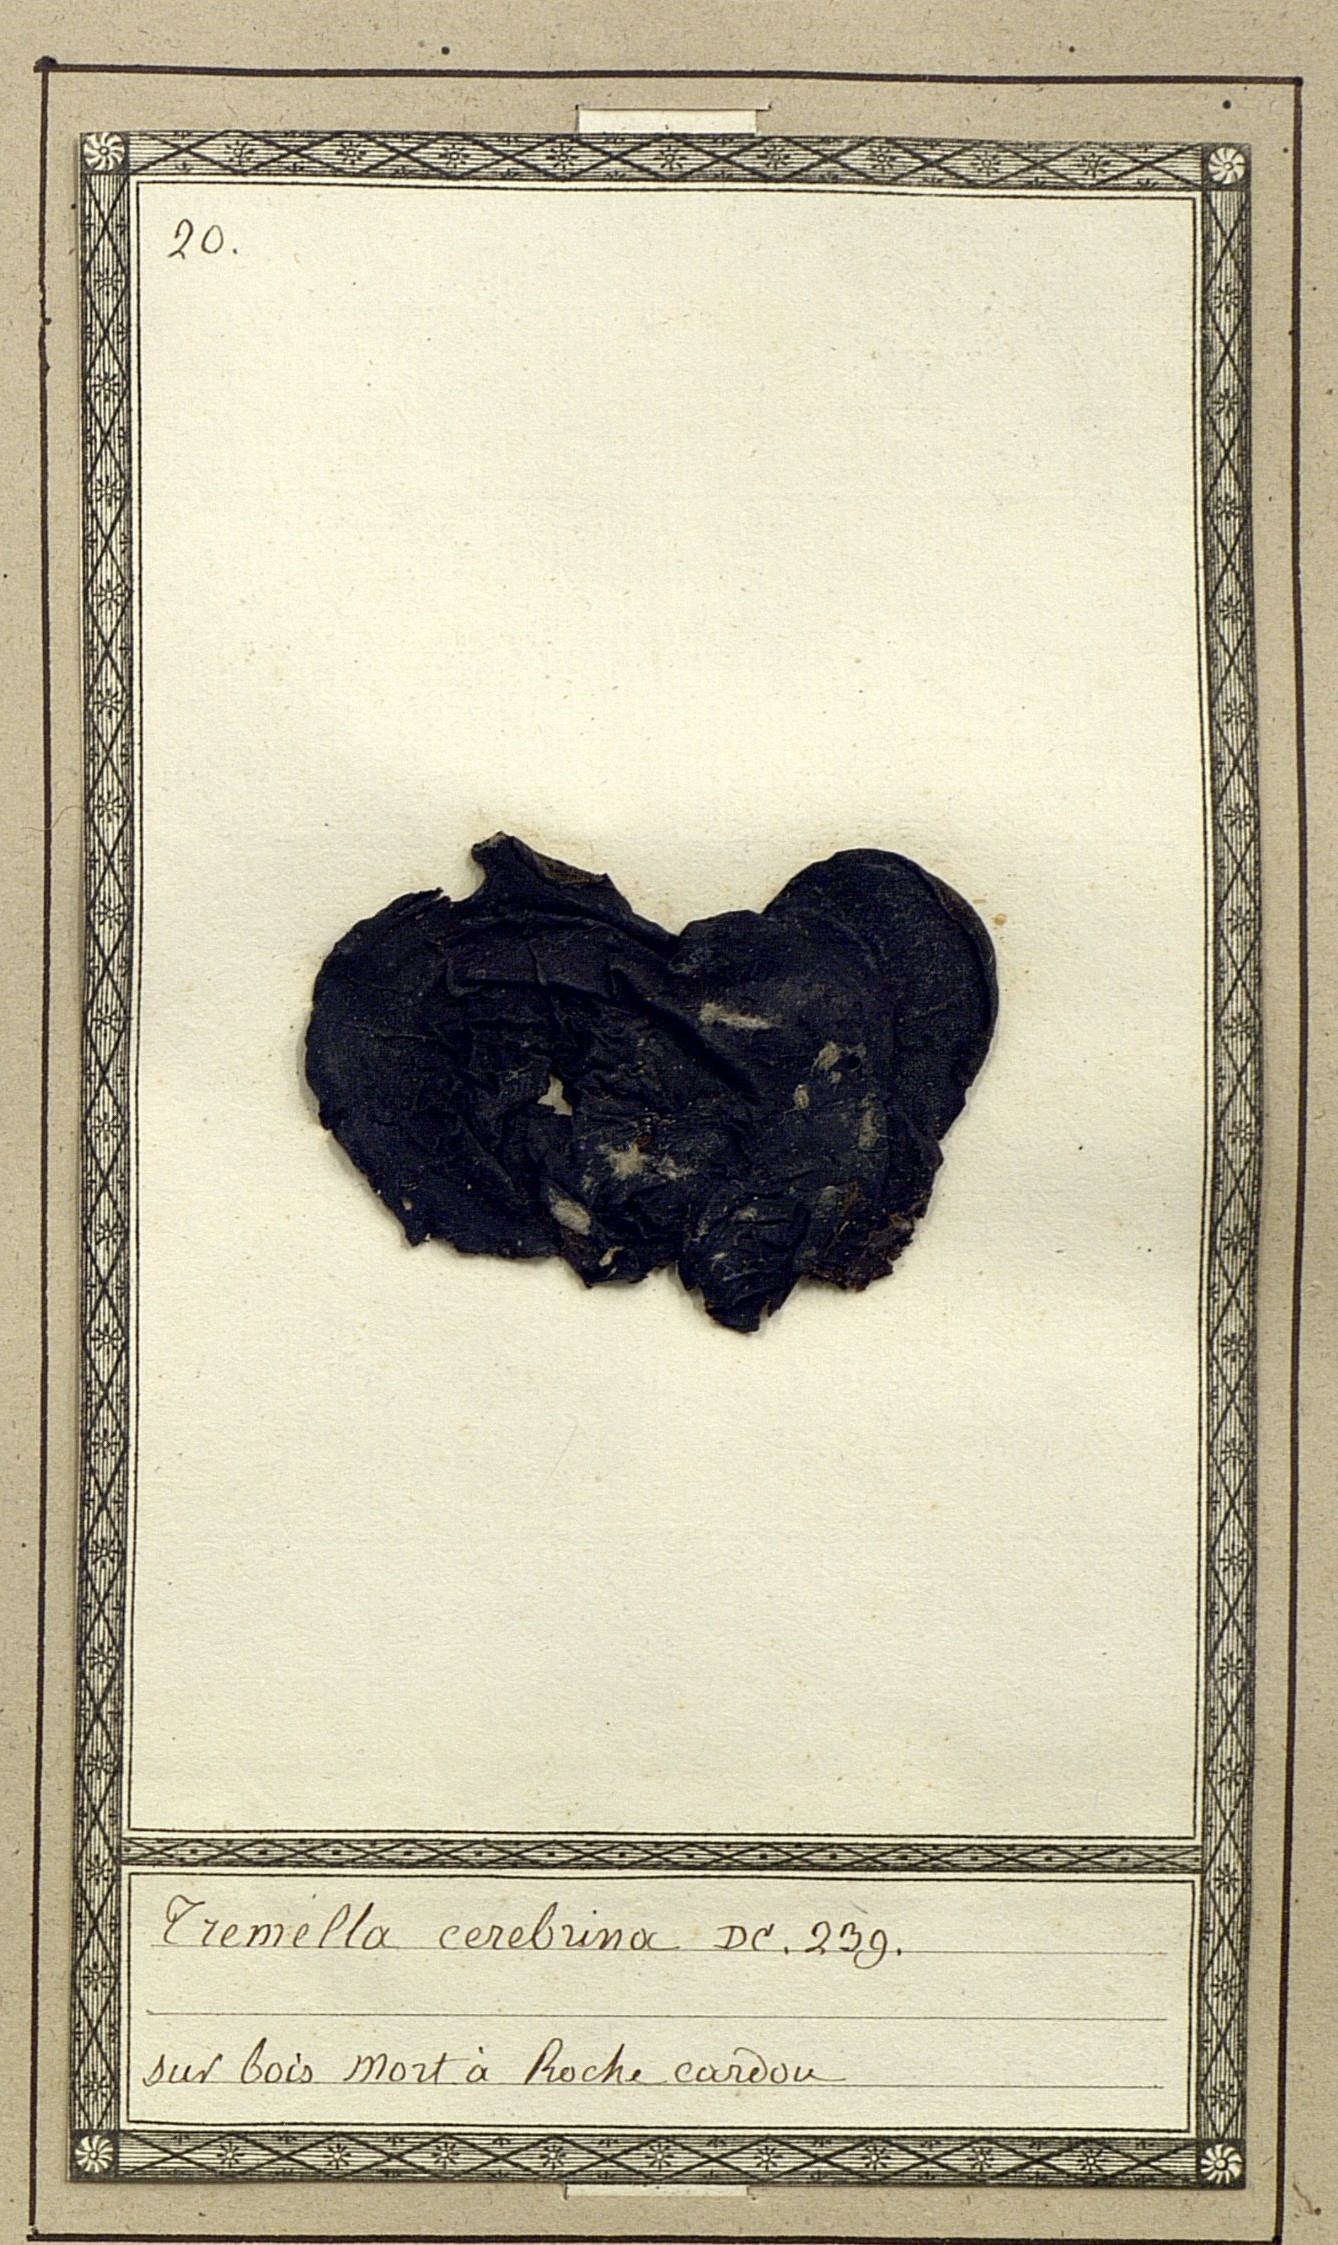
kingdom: Fungi
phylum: Basidiomycota
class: Tremellomycetes
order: Tremellales
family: Tremellaceae
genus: Tremella
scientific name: Tremella cerebrina
